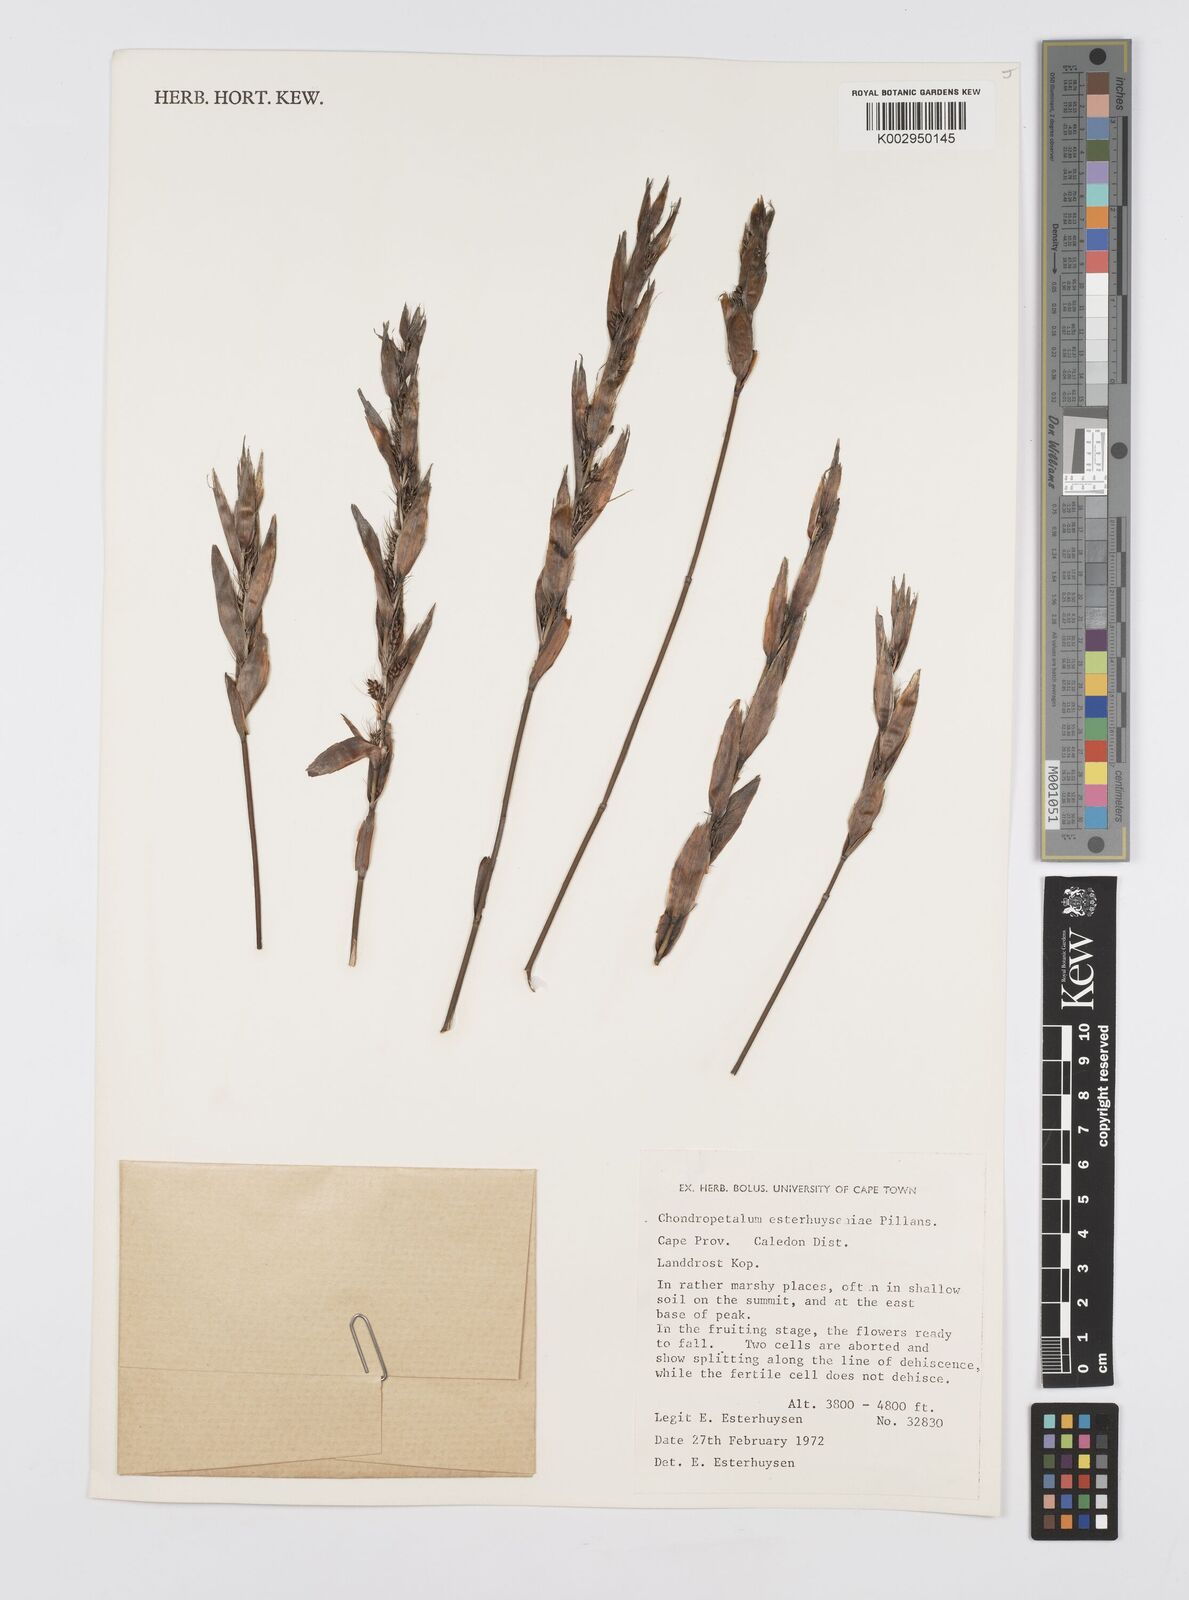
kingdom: Plantae
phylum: Tracheophyta
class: Liliopsida
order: Poales
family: Restionaceae
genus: Askidiosperma
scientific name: Askidiosperma esterhuyseniae
